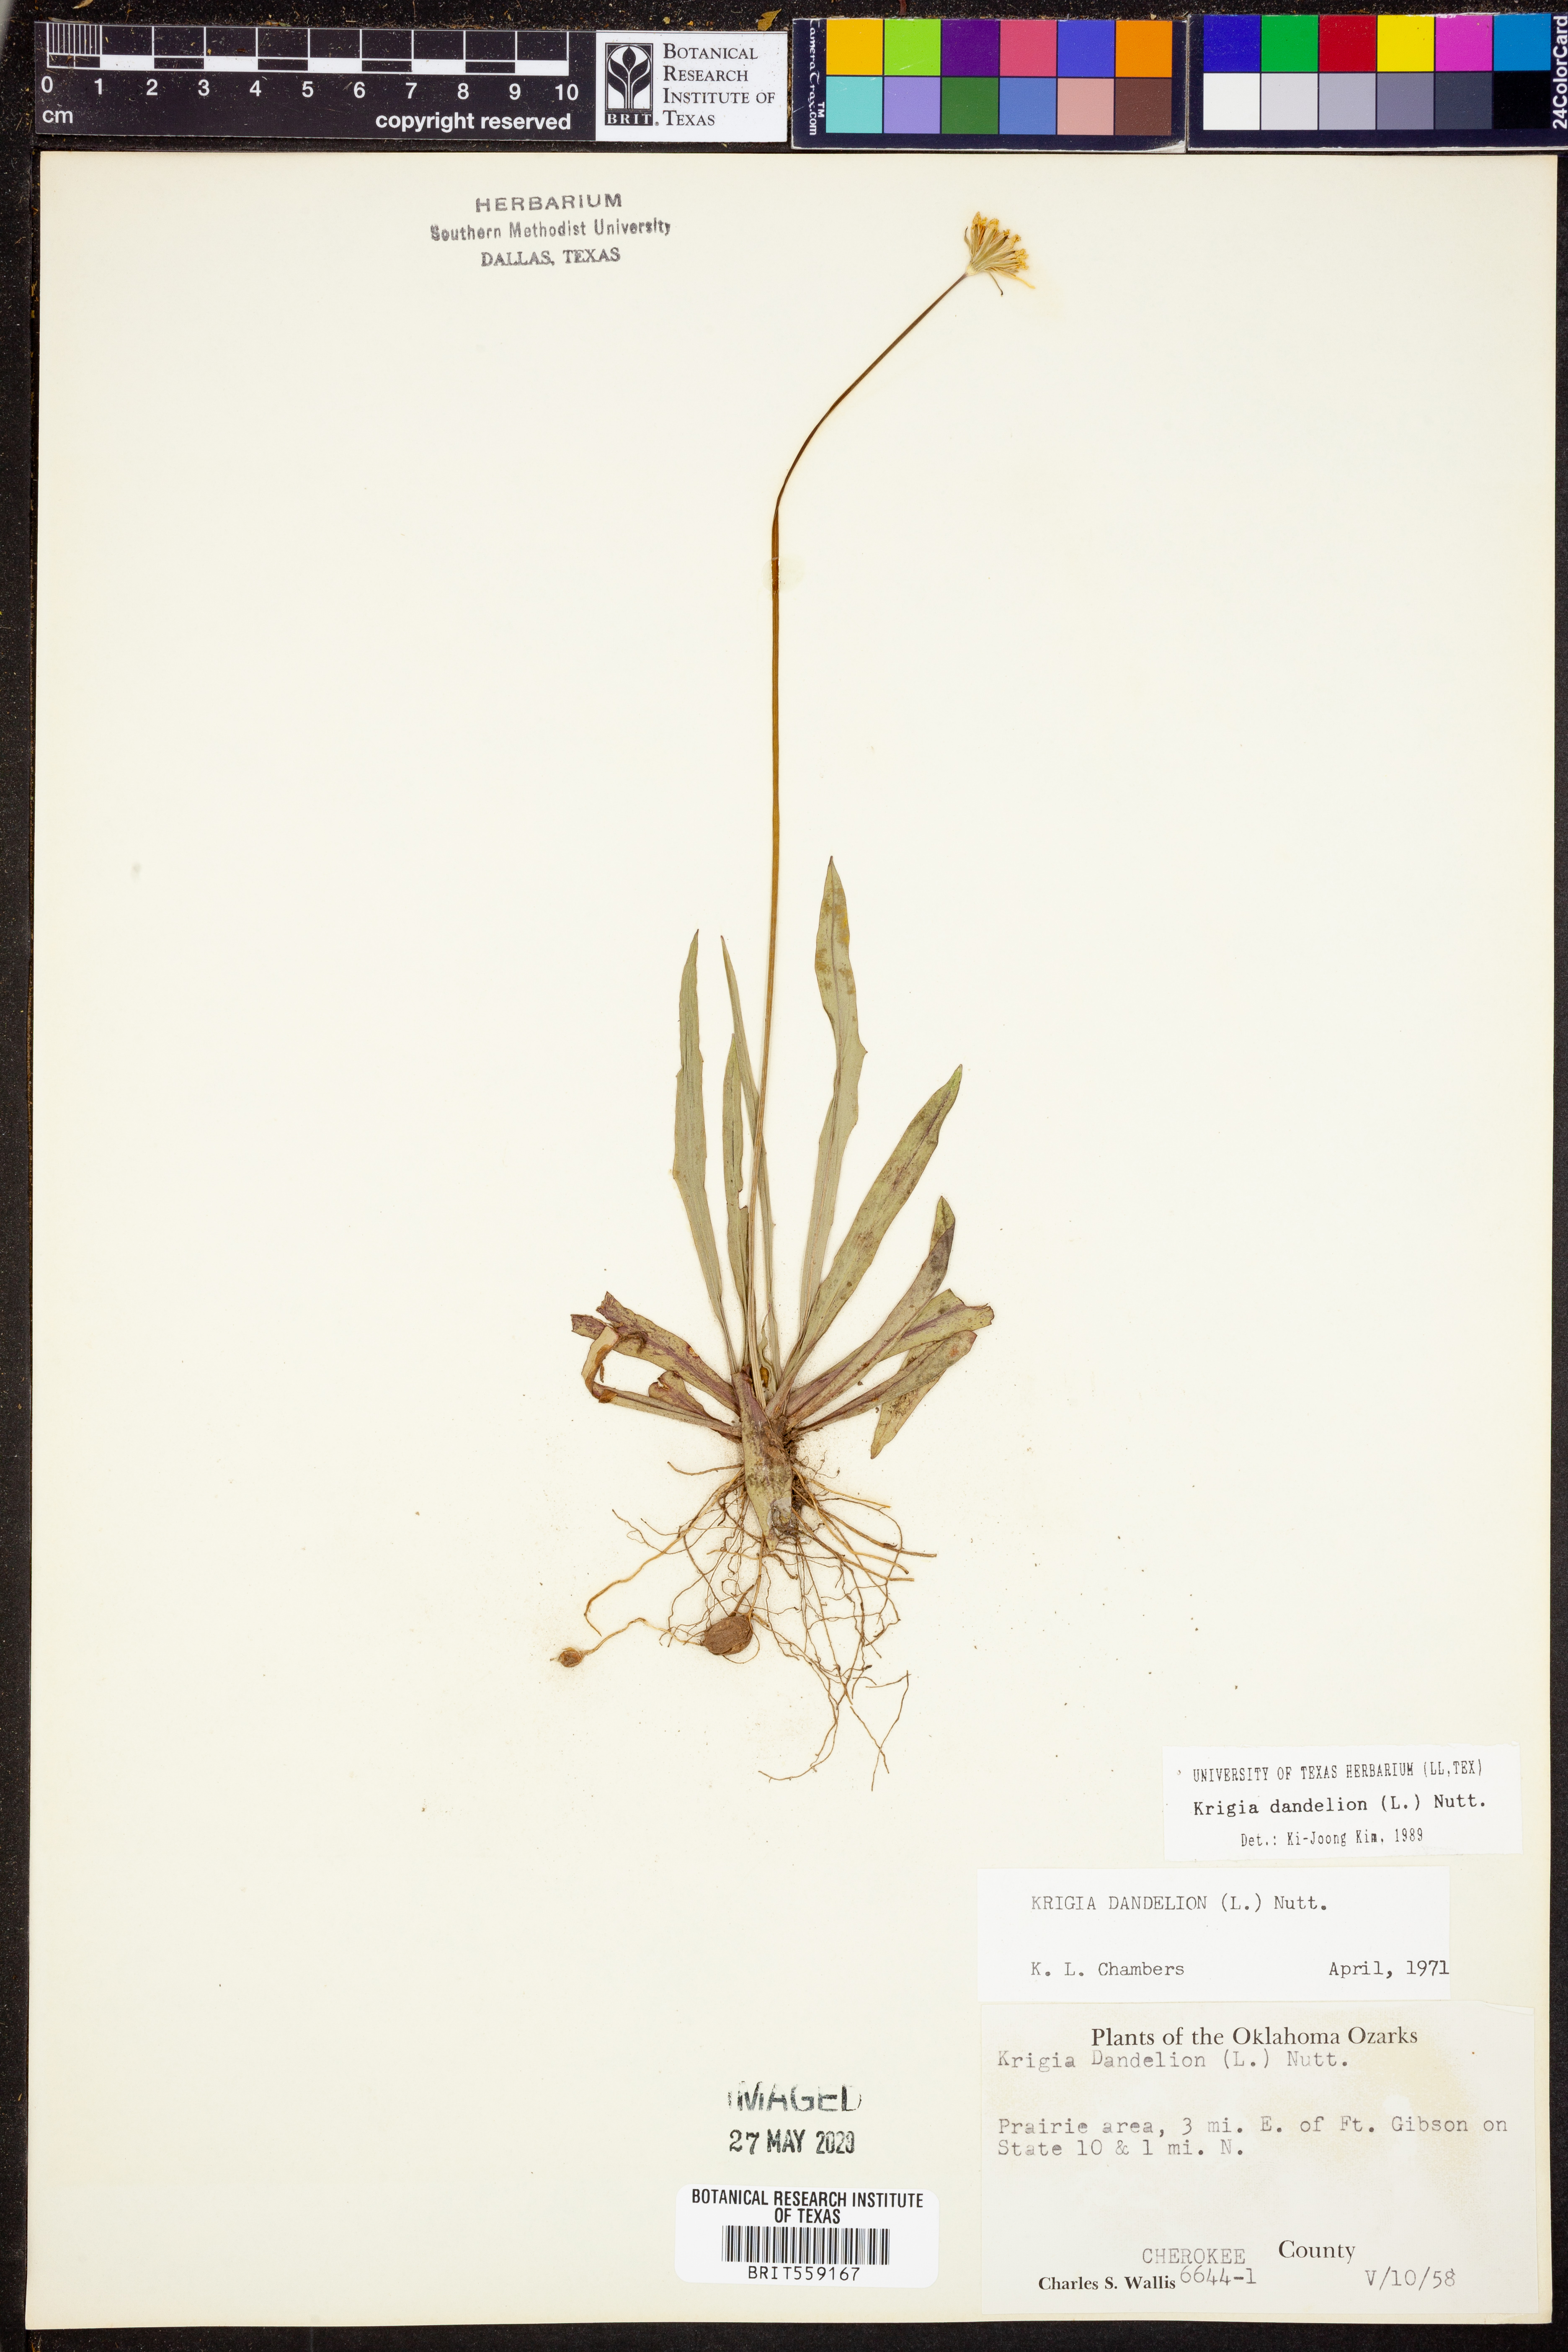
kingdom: Plantae
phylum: Tracheophyta
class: Magnoliopsida
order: Asterales
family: Asteraceae
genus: Krigia
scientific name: Krigia dandelion
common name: Colonial dwarf-dandelion
